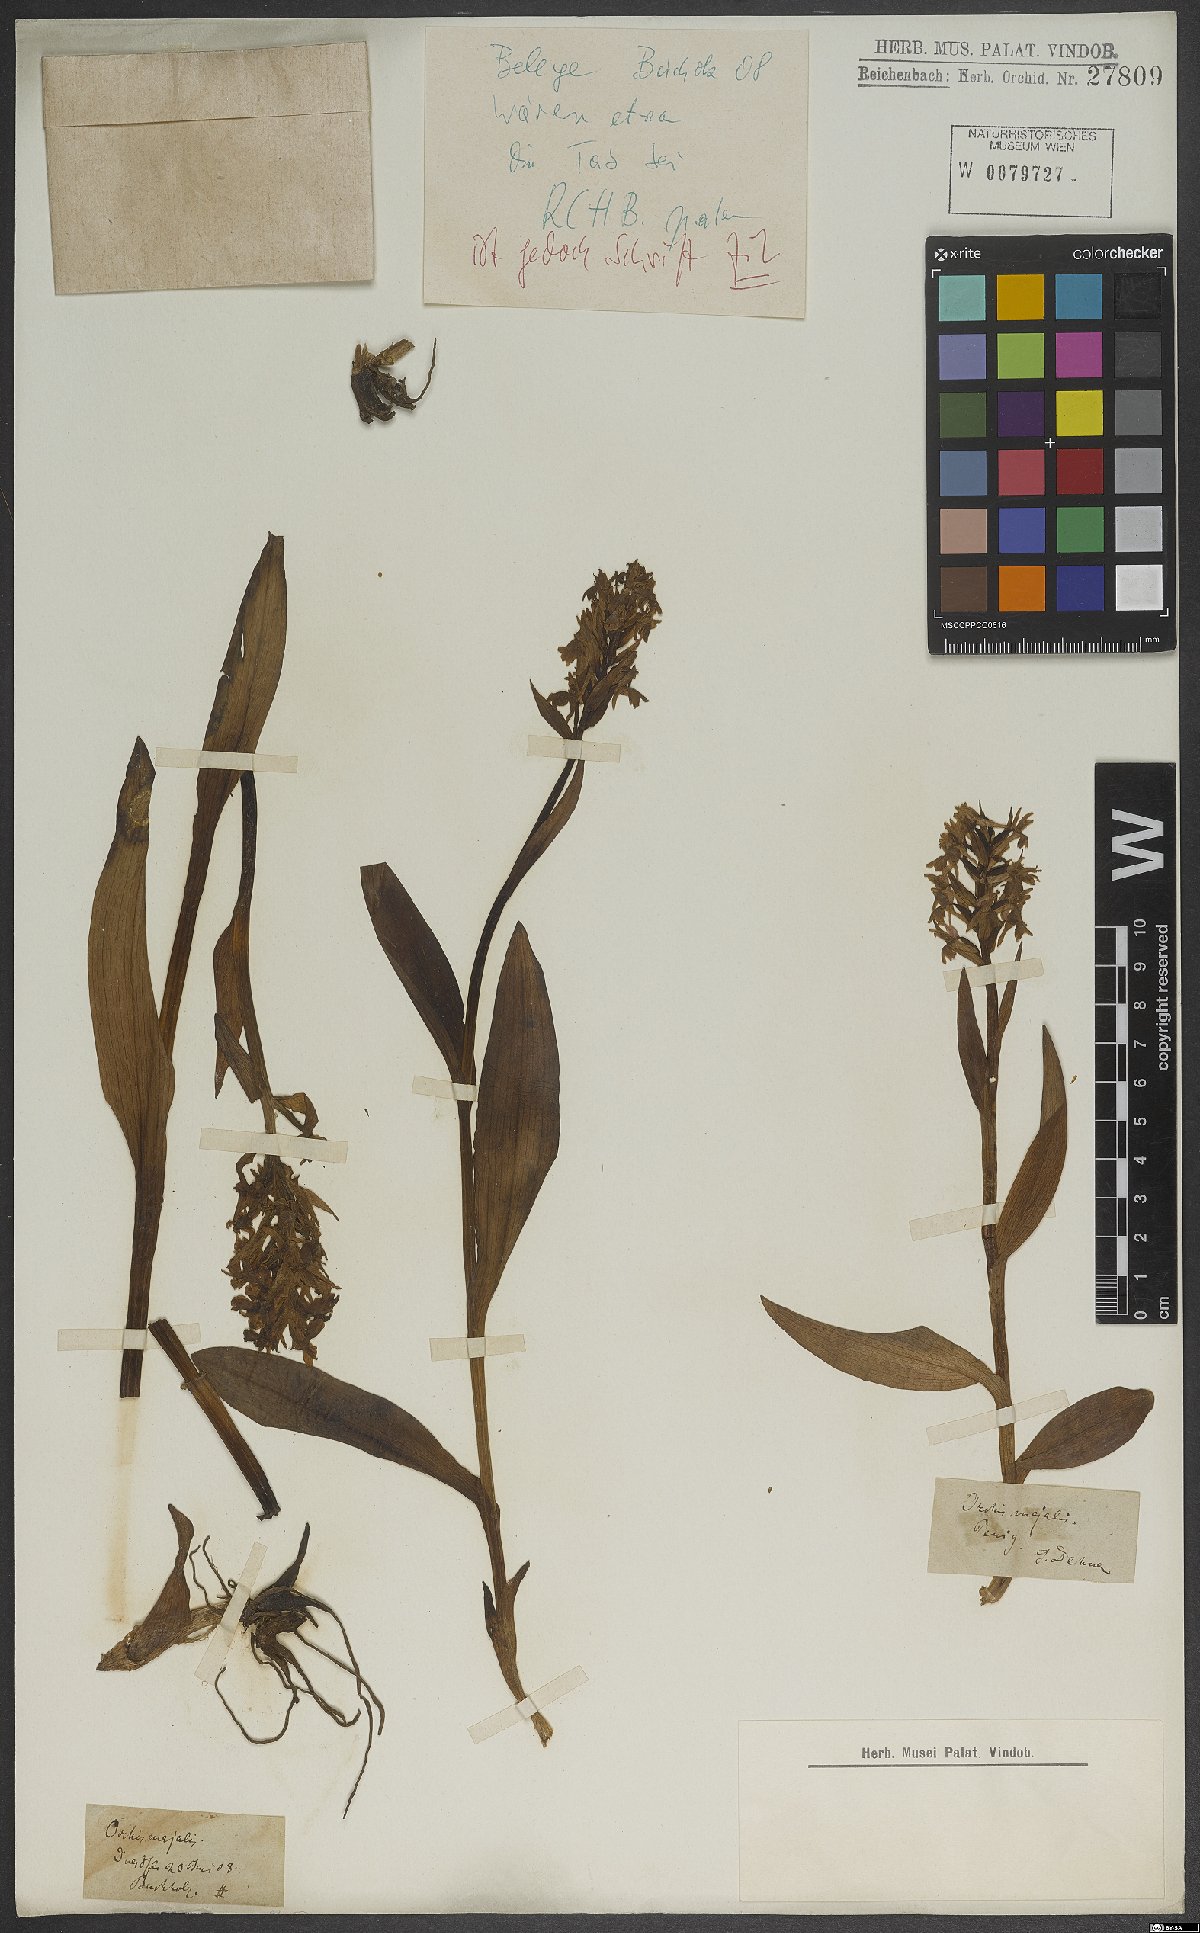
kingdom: Plantae
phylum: Tracheophyta
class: Liliopsida
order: Asparagales
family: Orchidaceae
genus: Dactylorhiza
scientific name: Dactylorhiza majalis
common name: Marsh orchid
